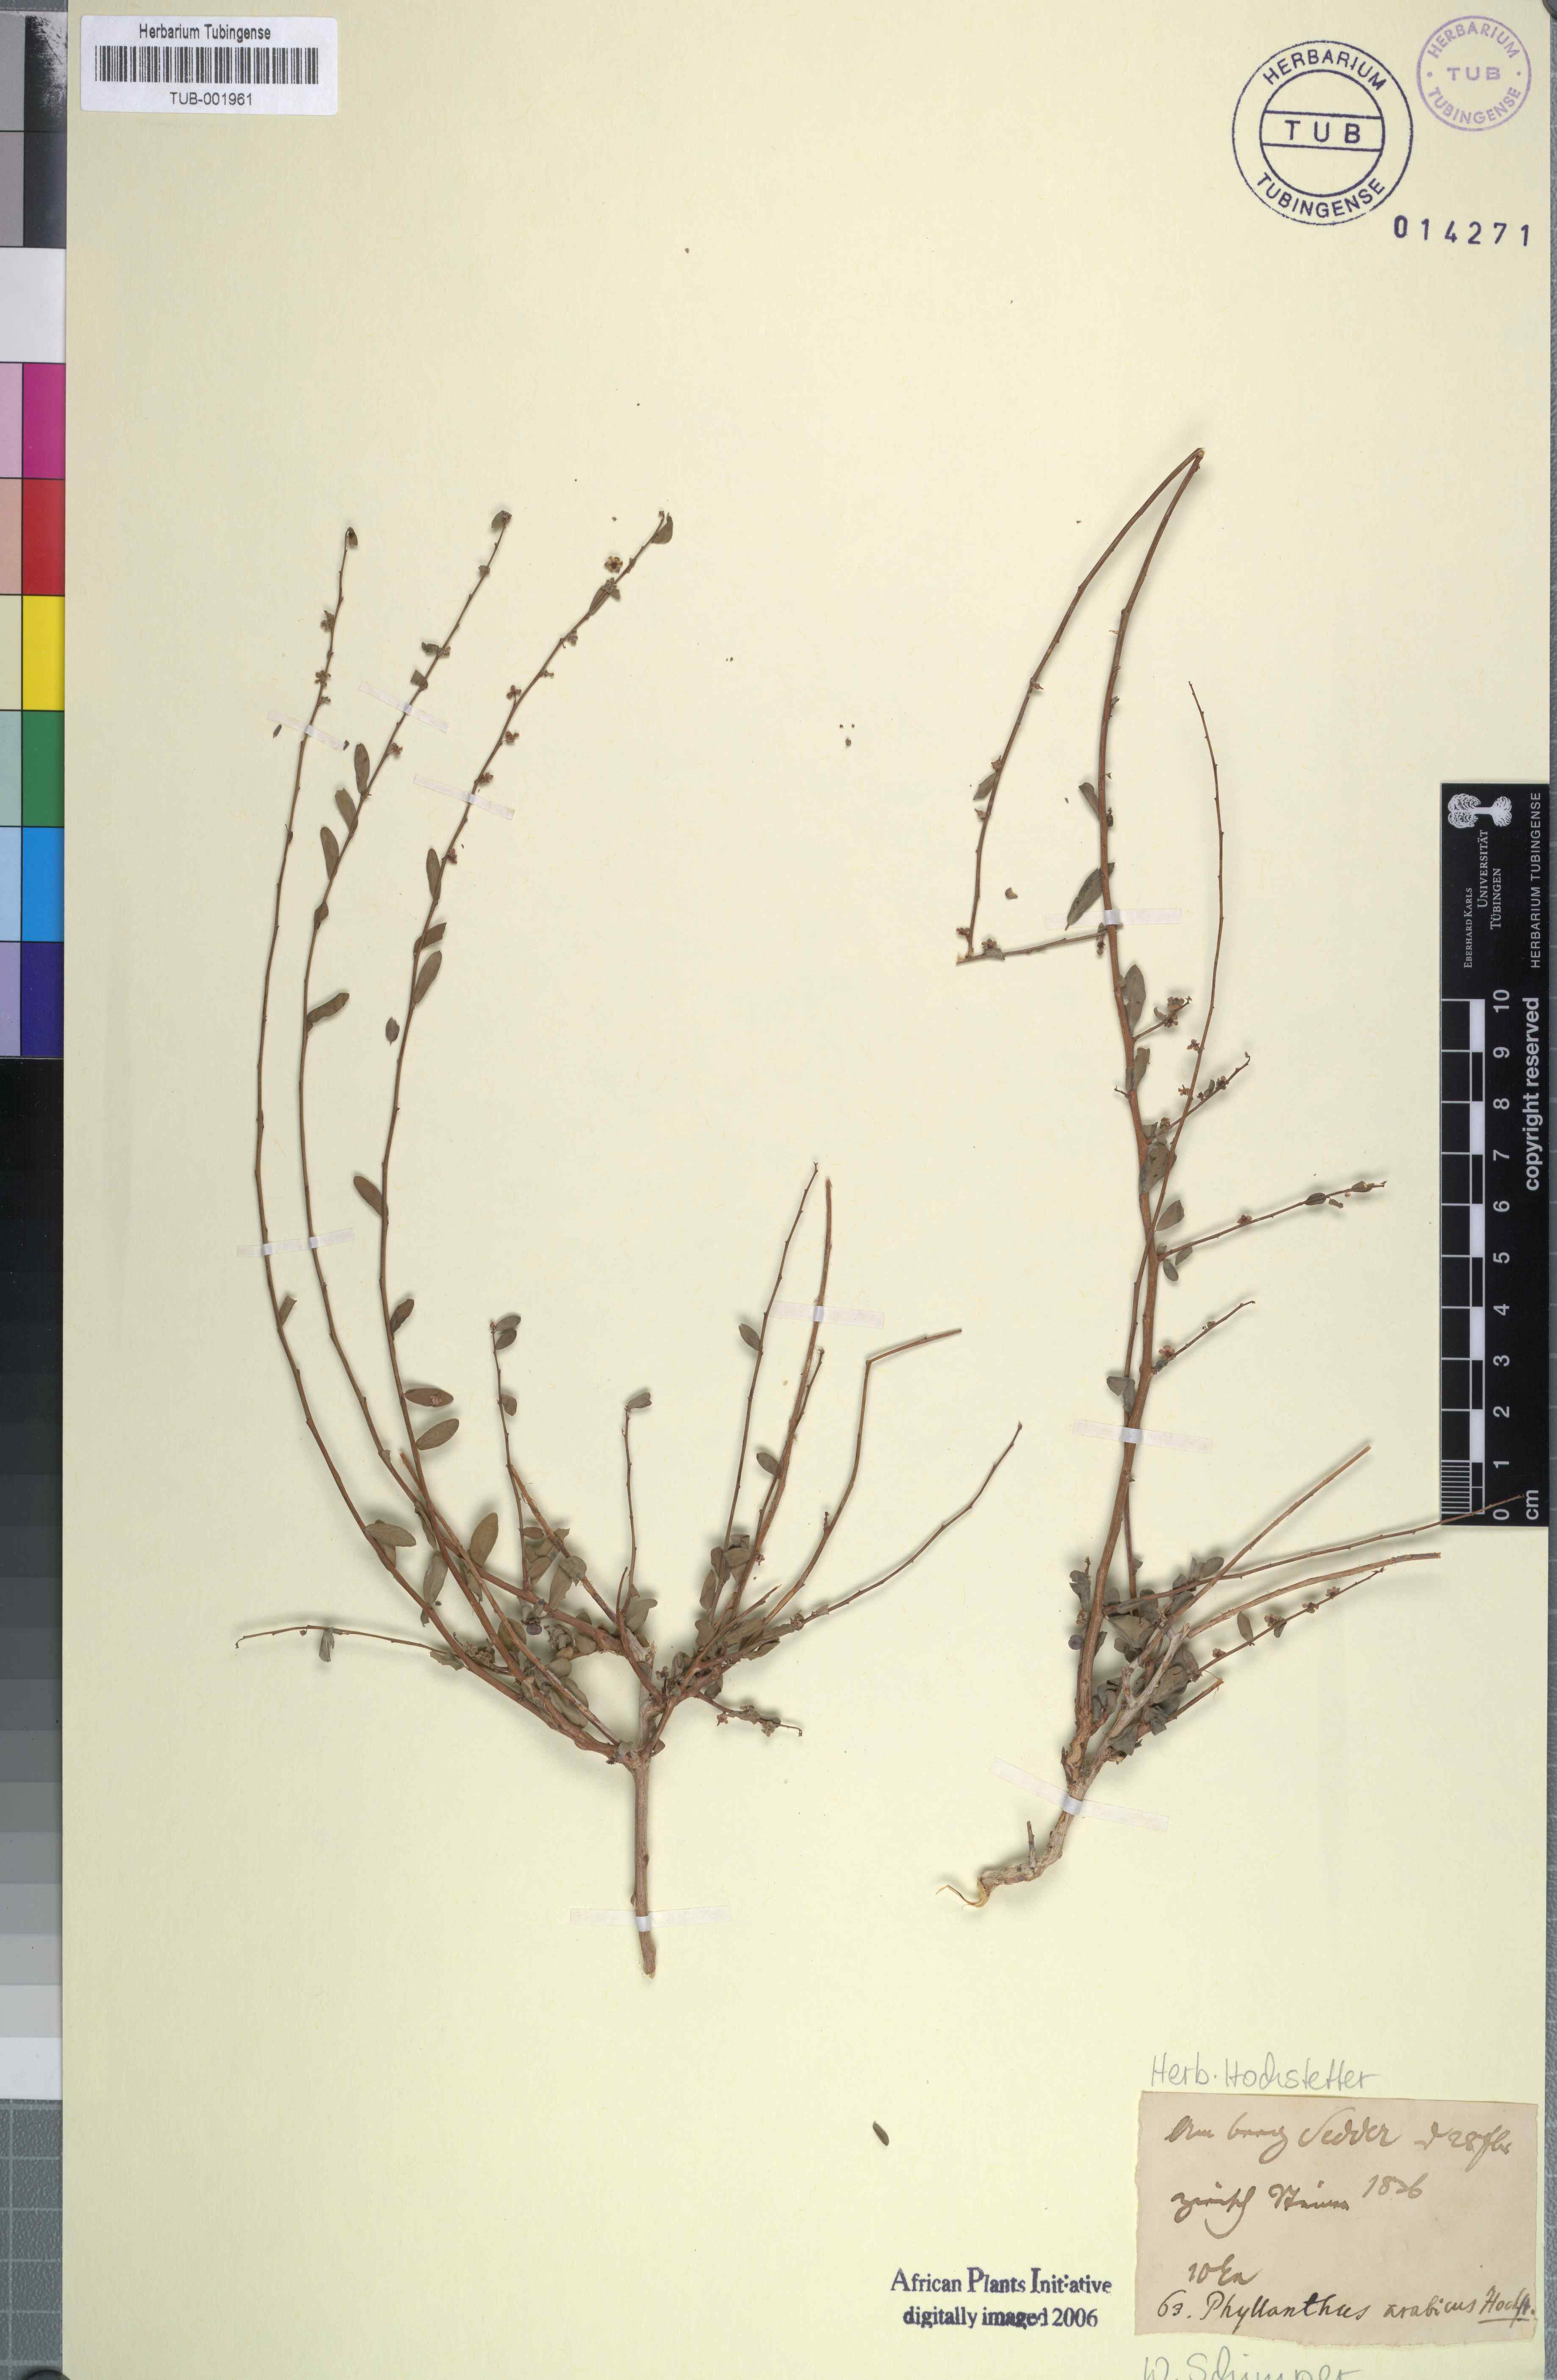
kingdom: Plantae
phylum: Tracheophyta
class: Magnoliopsida
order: Malpighiales
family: Phyllanthaceae
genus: Phyllanthus
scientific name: Phyllanthus maderaspatensis
